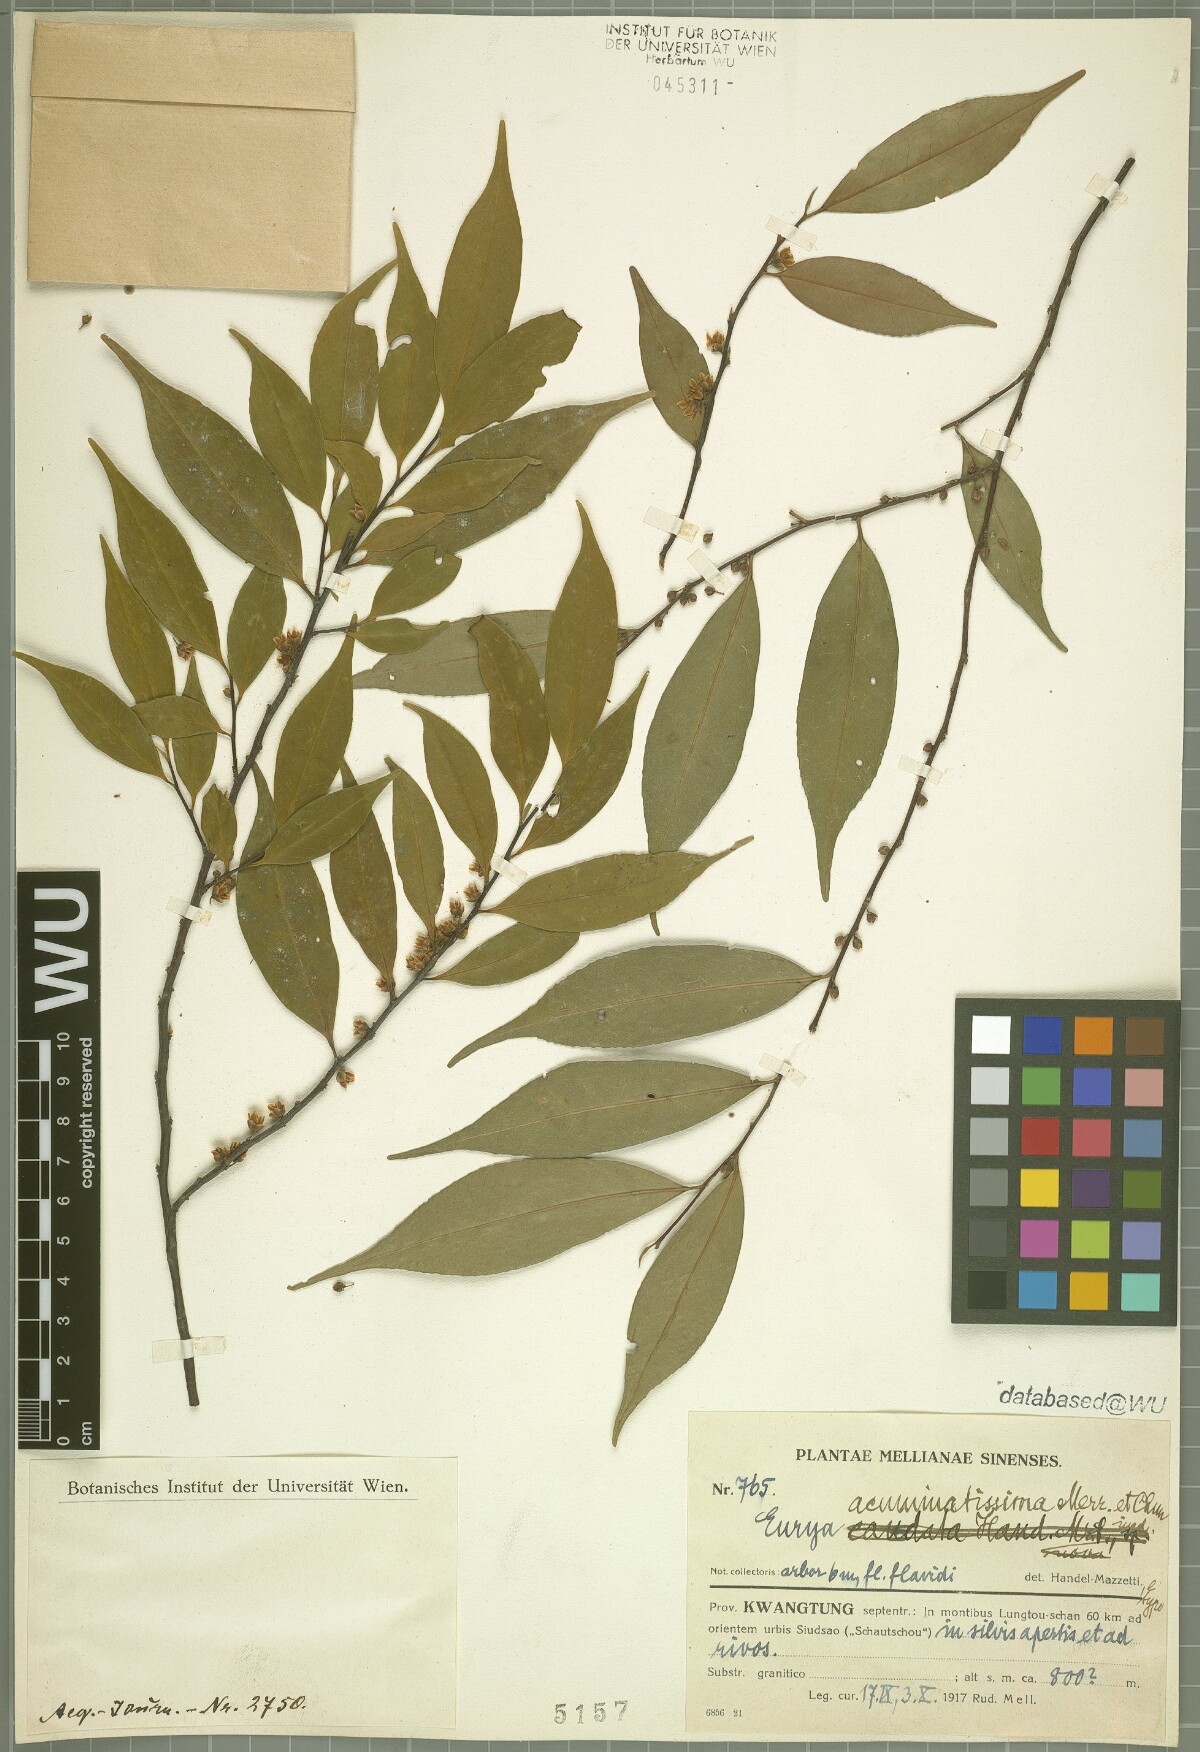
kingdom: Plantae
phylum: Tracheophyta
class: Magnoliopsida
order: Ericales
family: Pentaphylacaceae
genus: Eurya
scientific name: Eurya acuminatissima
